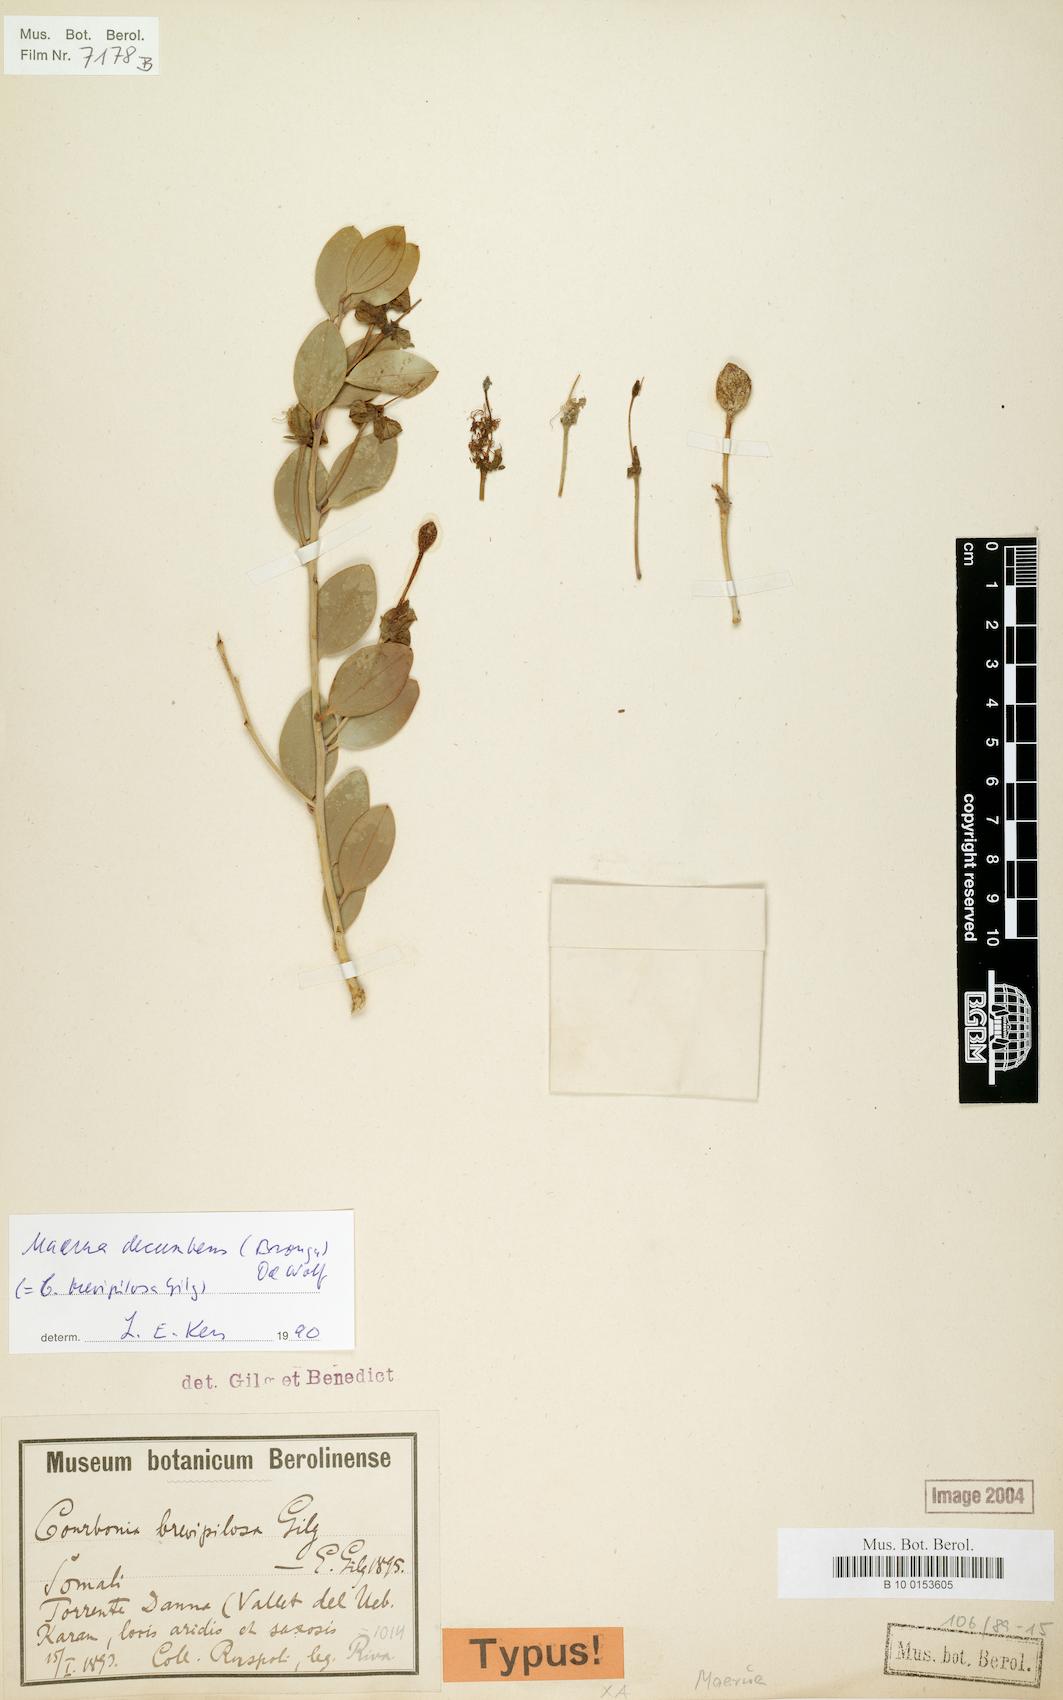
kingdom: Plantae
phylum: Tracheophyta
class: Magnoliopsida
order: Brassicales
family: Capparaceae
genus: Maerua
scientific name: Maerua decumbens
